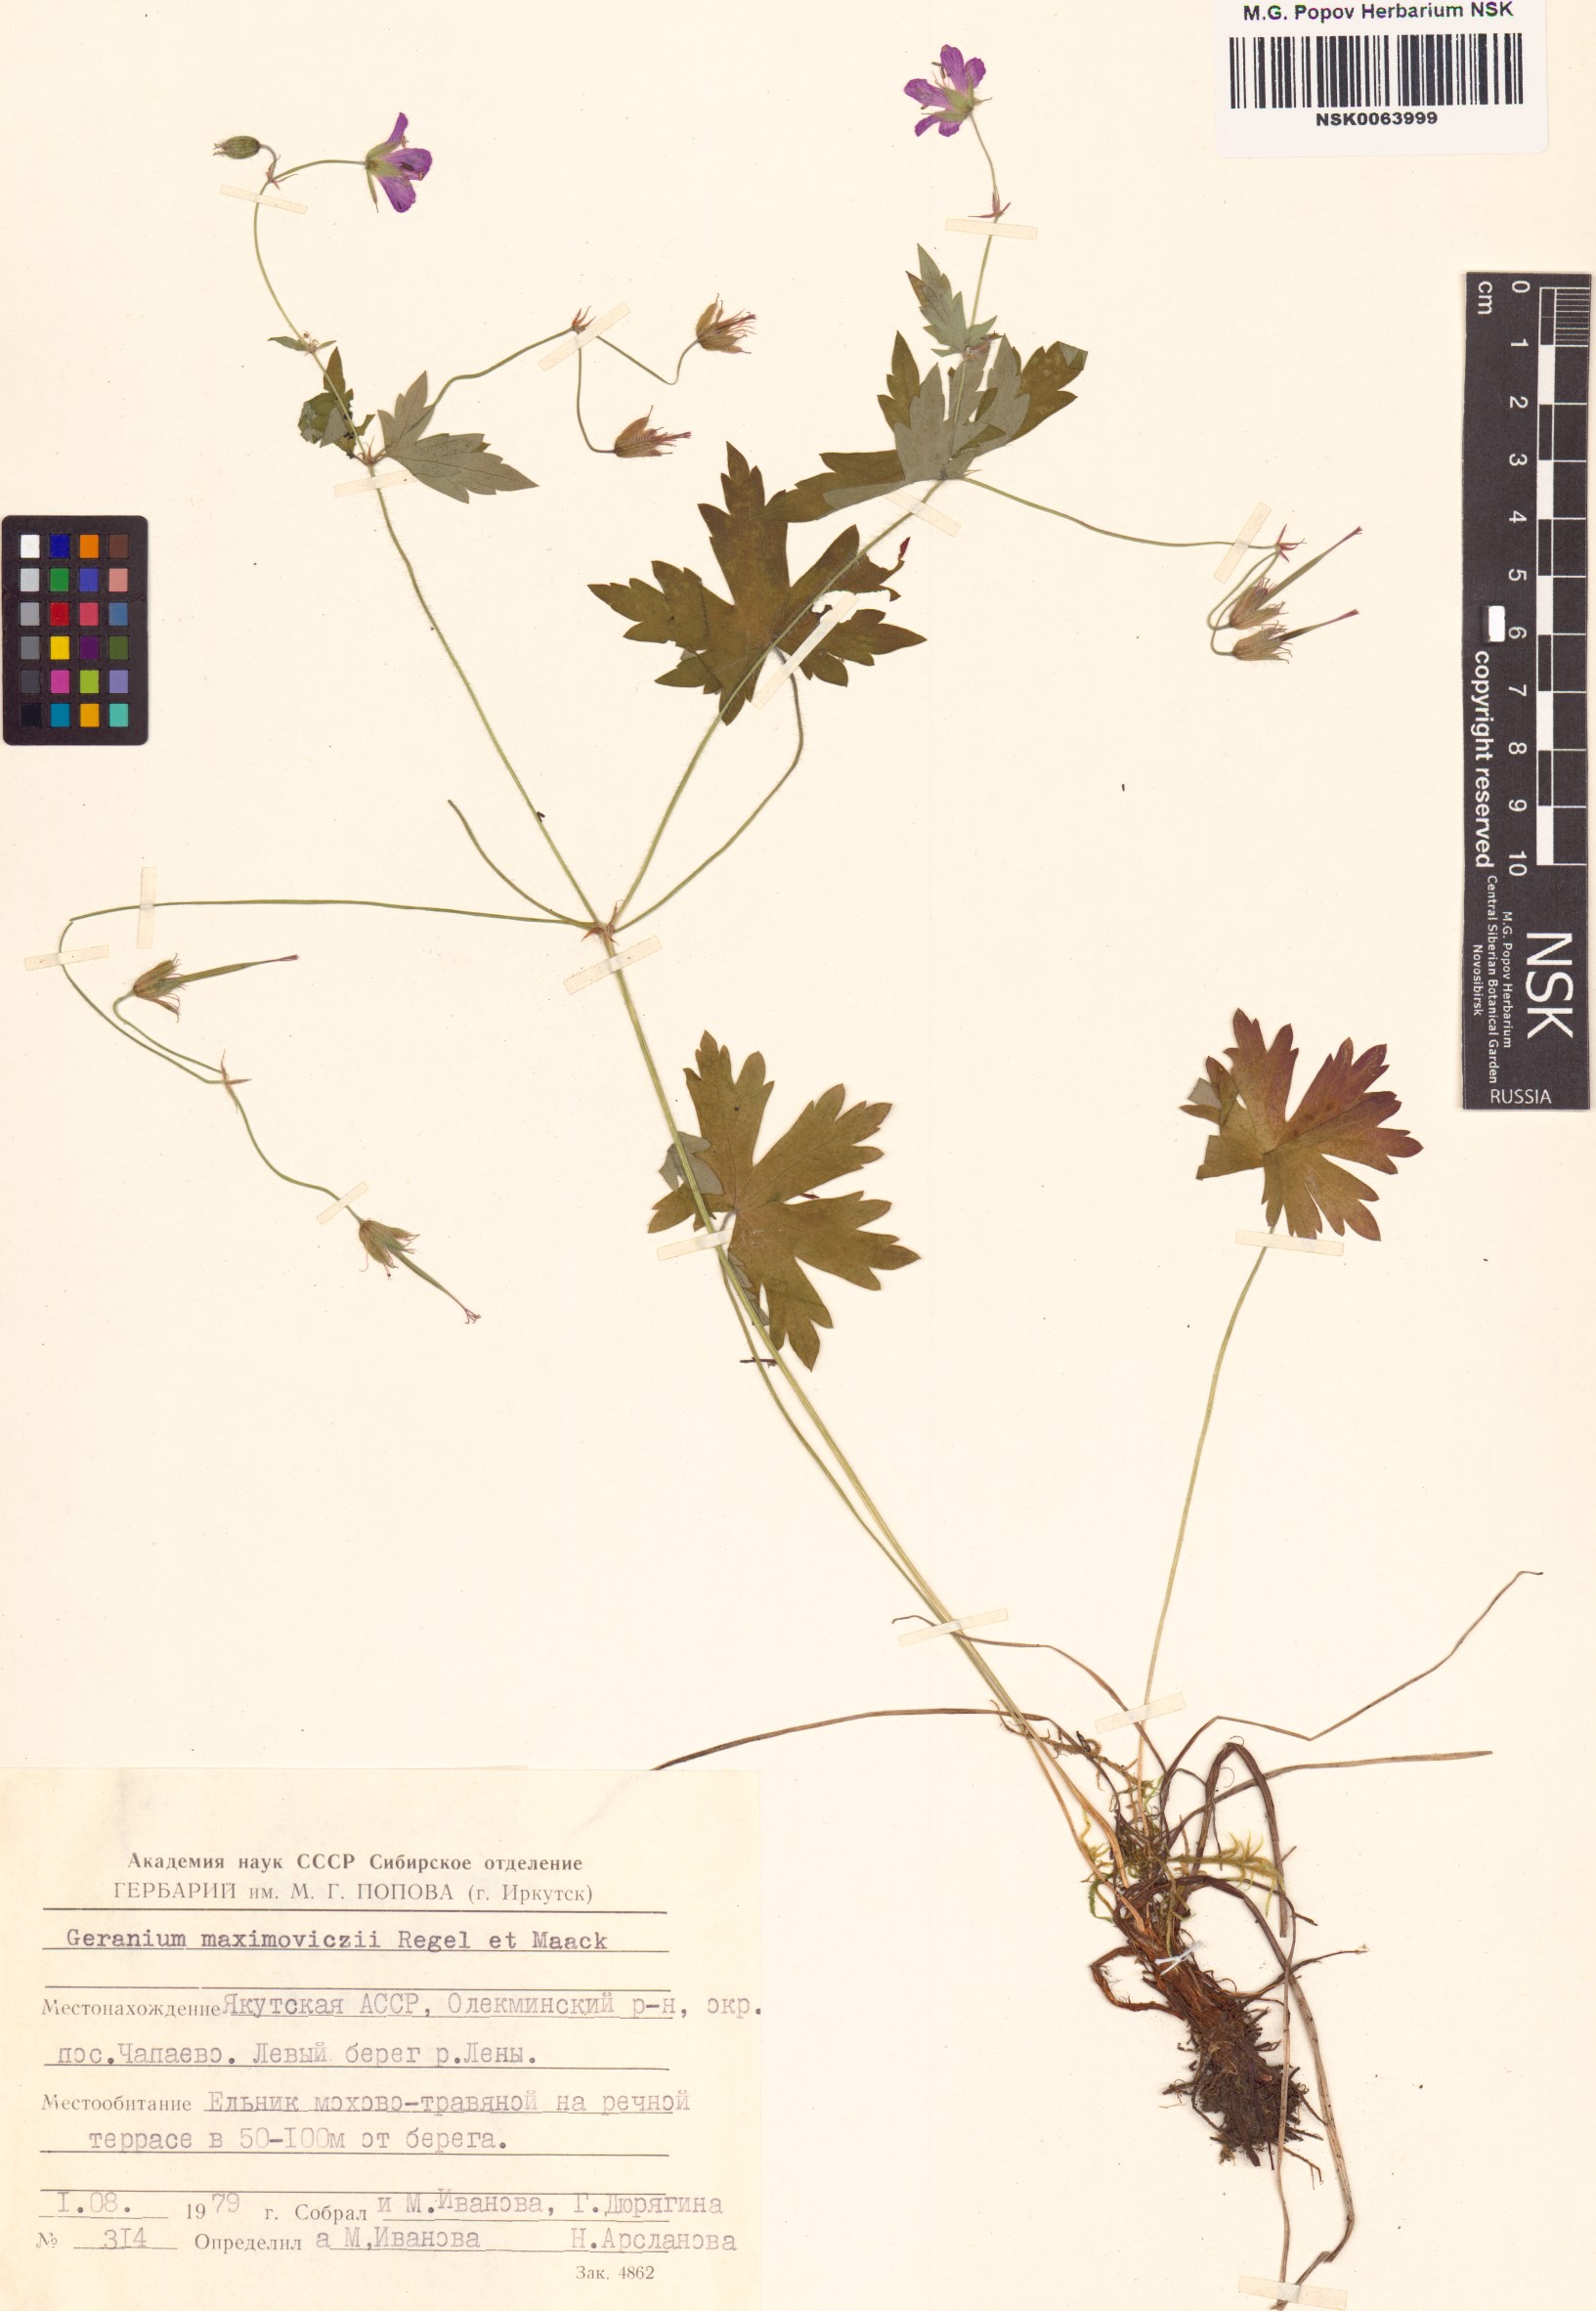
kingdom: Plantae
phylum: Tracheophyta
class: Magnoliopsida
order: Geraniales
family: Geraniaceae
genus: Geranium
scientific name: Geranium maximowiczii
